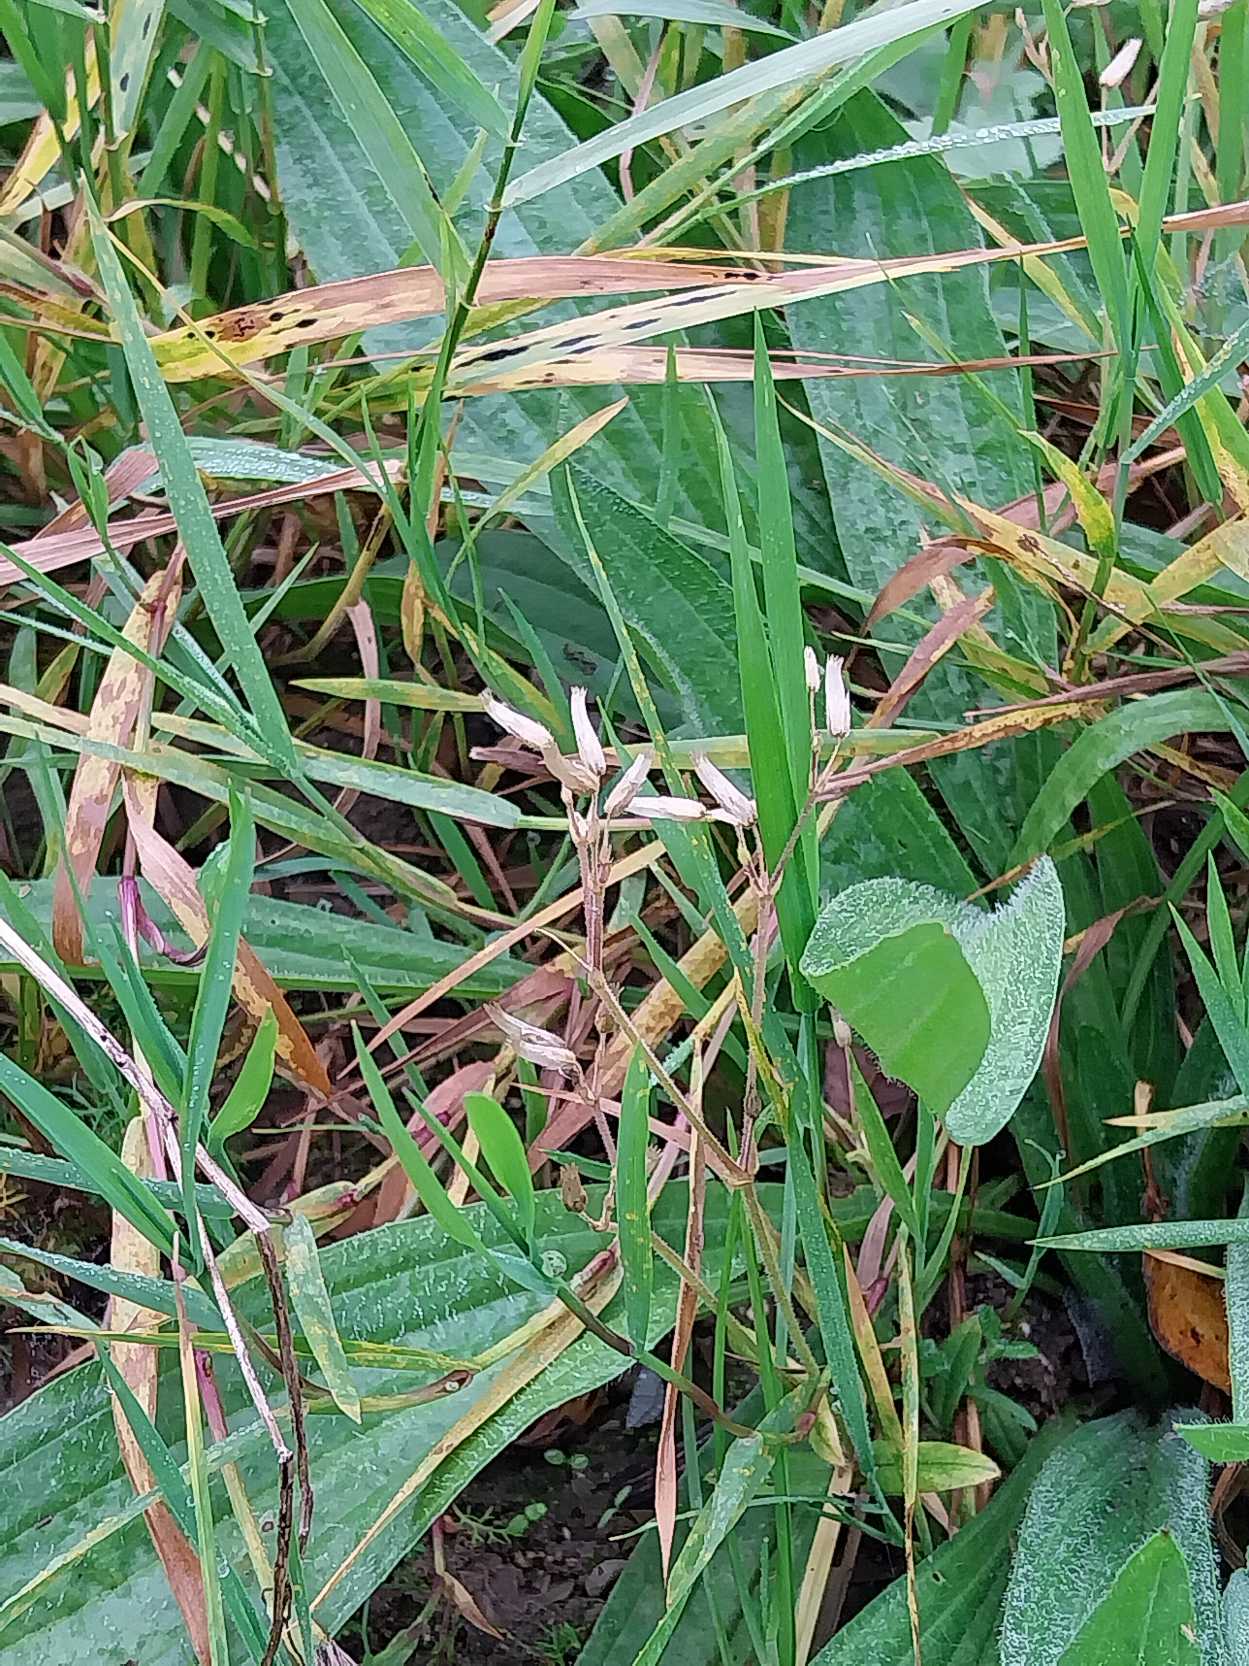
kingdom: Plantae
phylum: Tracheophyta
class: Magnoliopsida
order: Caryophyllales
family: Caryophyllaceae
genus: Cerastium
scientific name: Cerastium fontanum
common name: Almindelig hønsetarm
